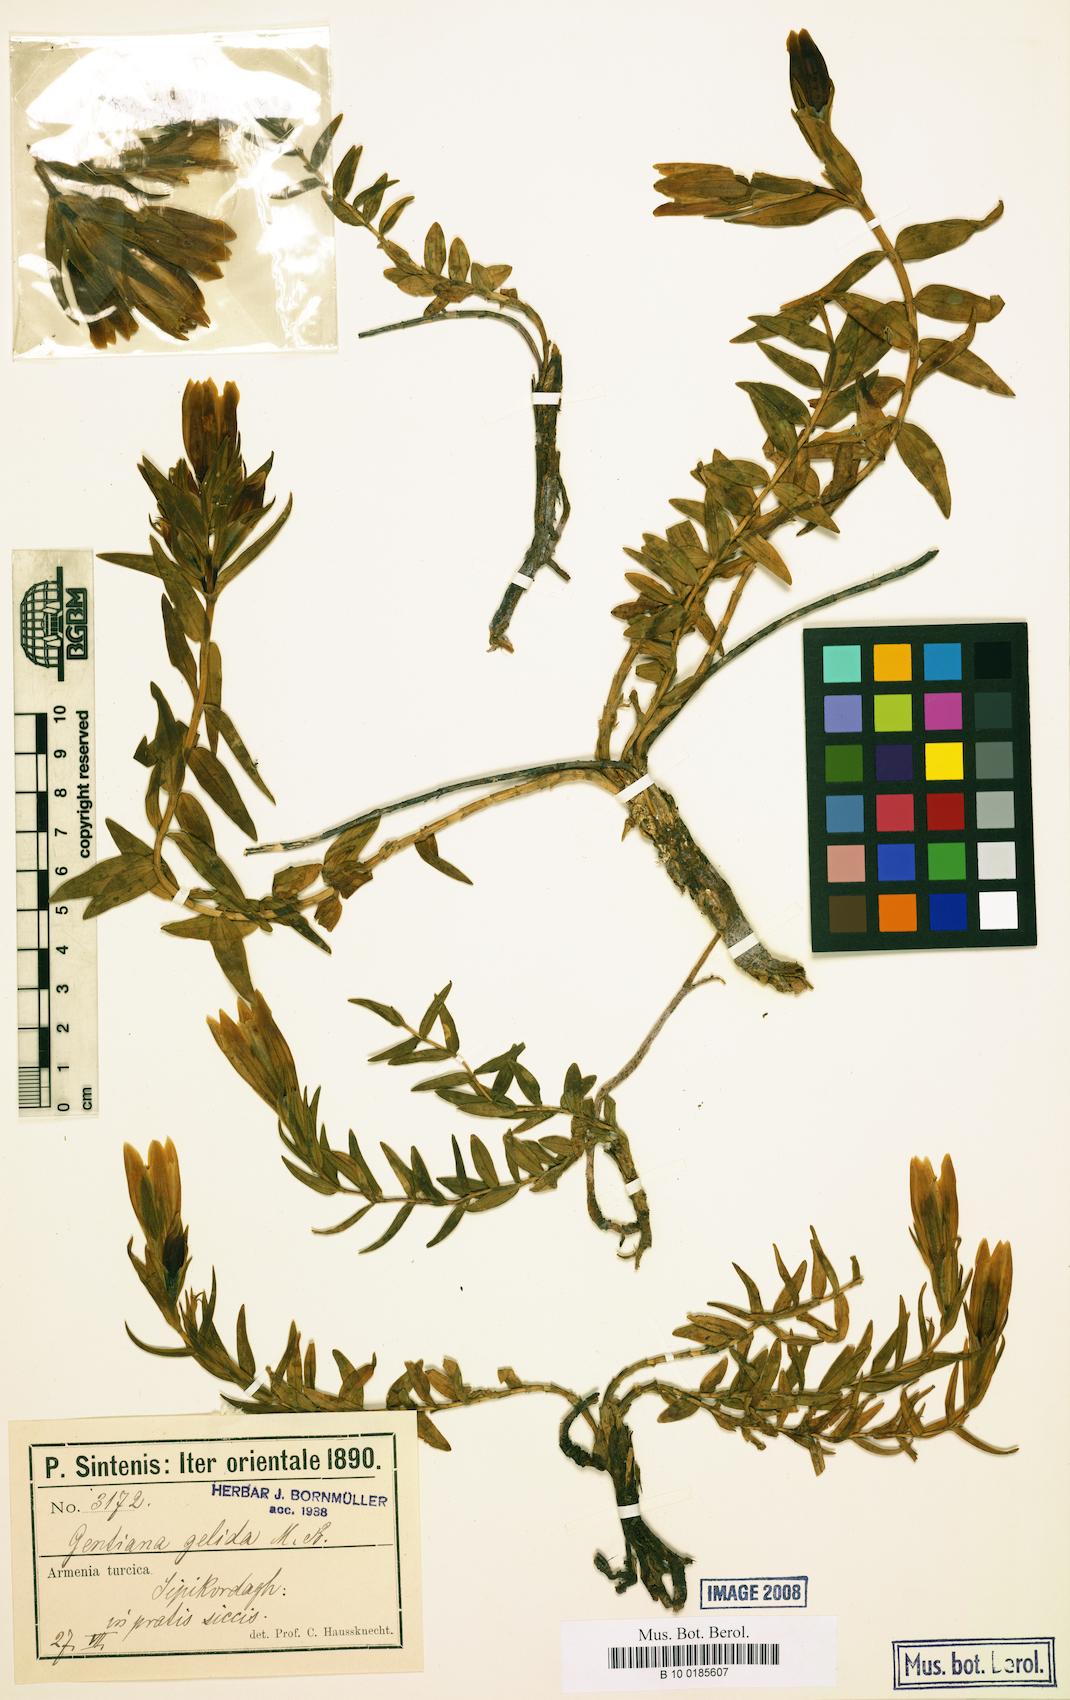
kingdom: Plantae
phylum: Tracheophyta
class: Magnoliopsida
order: Gentianales
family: Gentianaceae
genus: Gentiana
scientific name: Gentiana gelida
